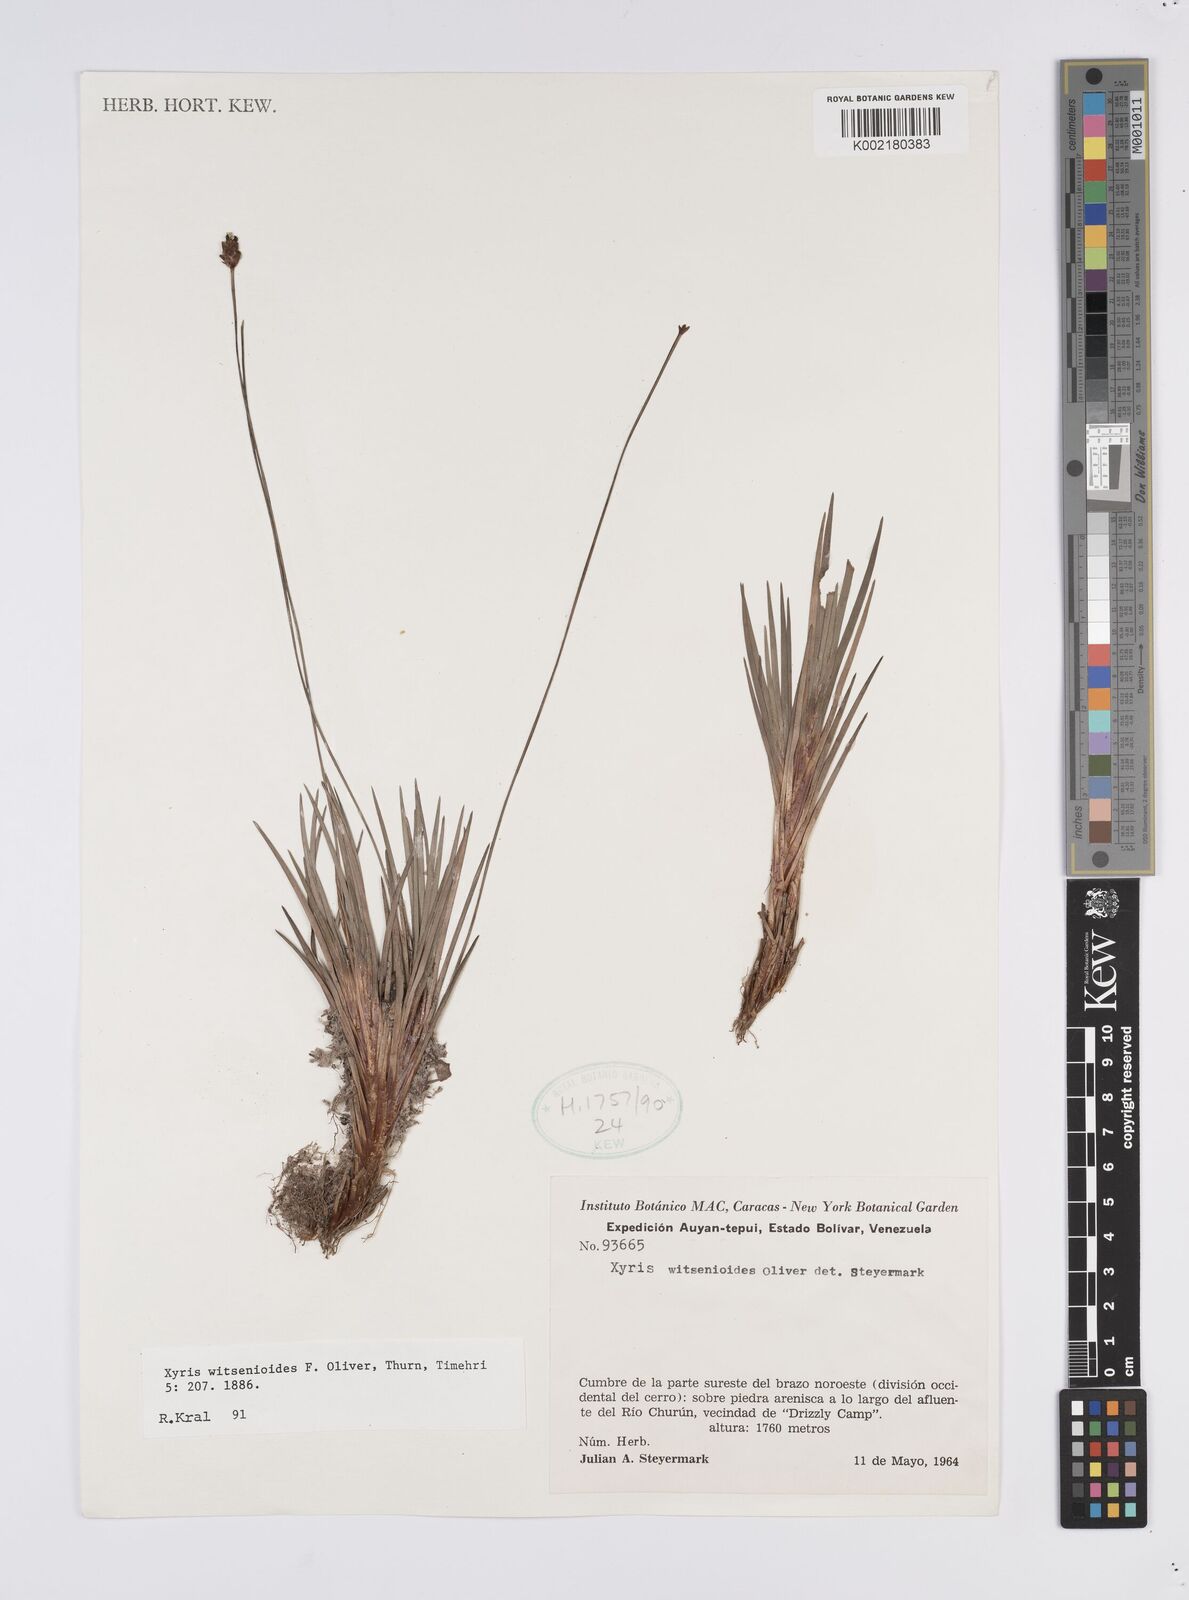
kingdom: Plantae
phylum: Tracheophyta
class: Liliopsida
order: Poales
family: Xyridaceae
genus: Xyris
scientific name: Xyris witsenioides
